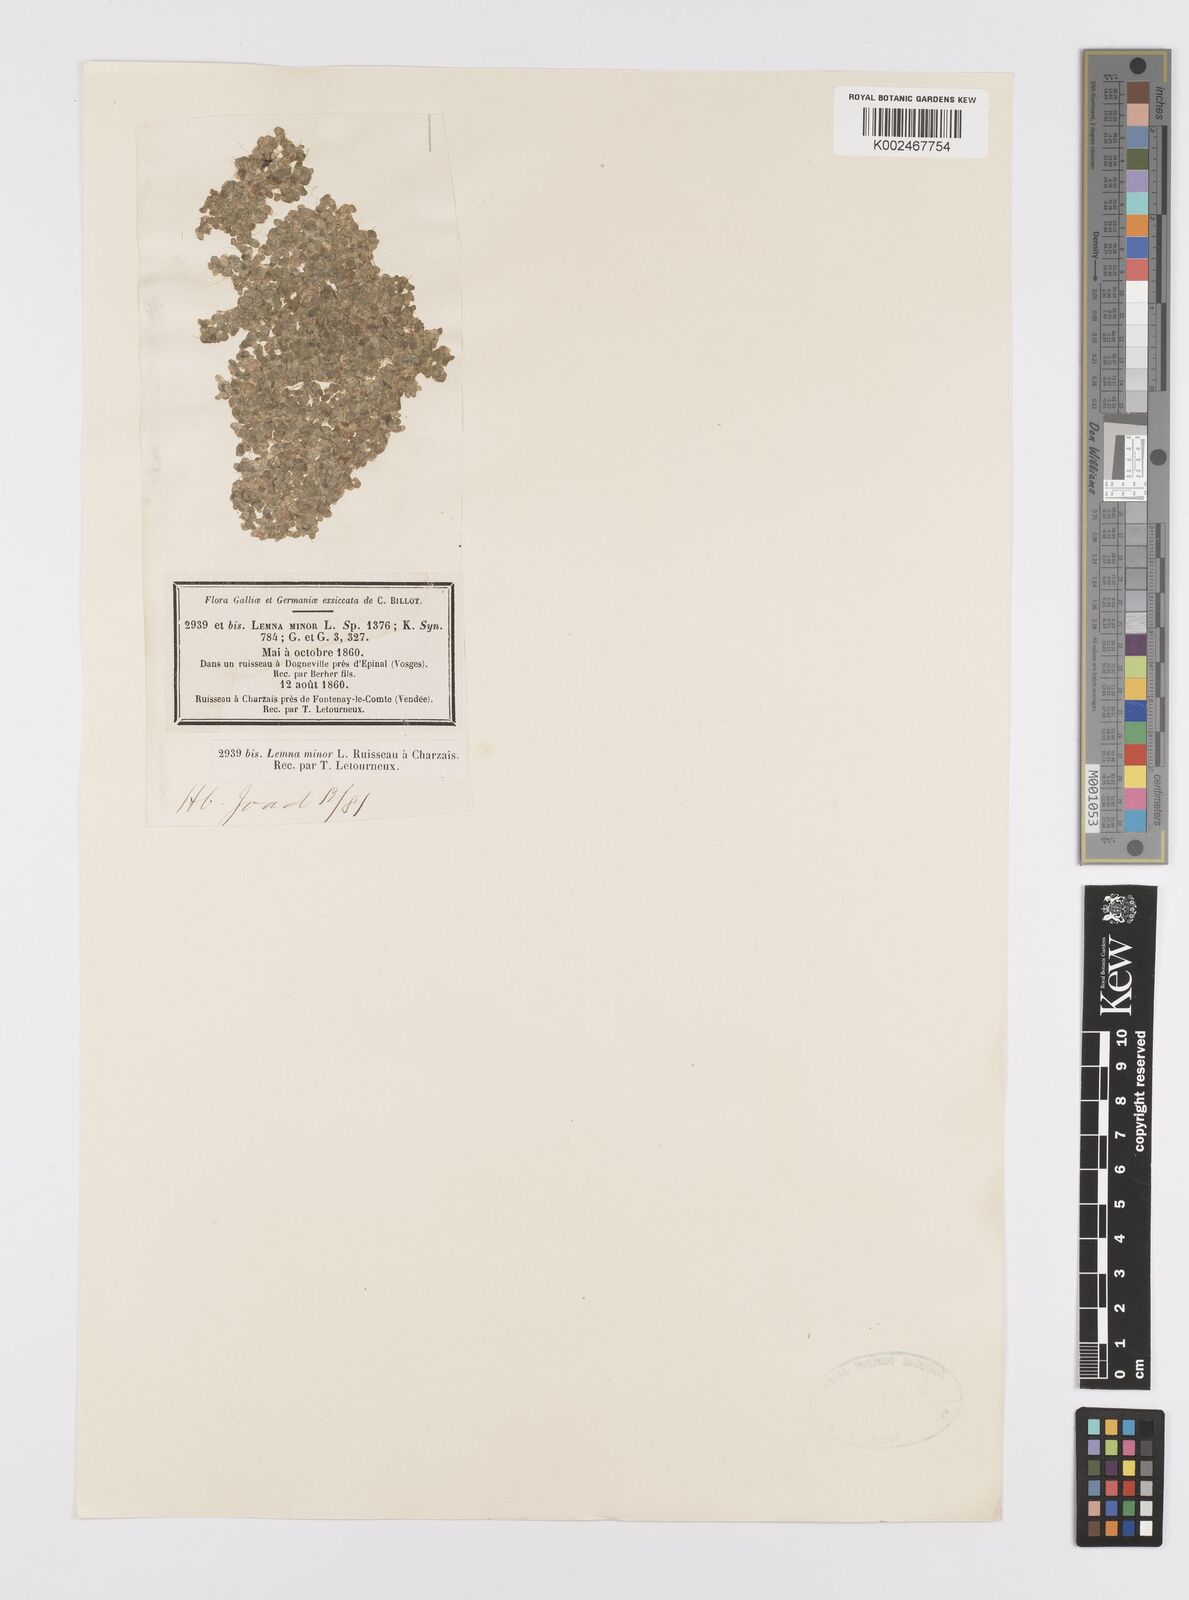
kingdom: Plantae
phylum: Tracheophyta
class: Liliopsida
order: Alismatales
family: Araceae
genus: Lemna
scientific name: Lemna minor
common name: Common duckweed
